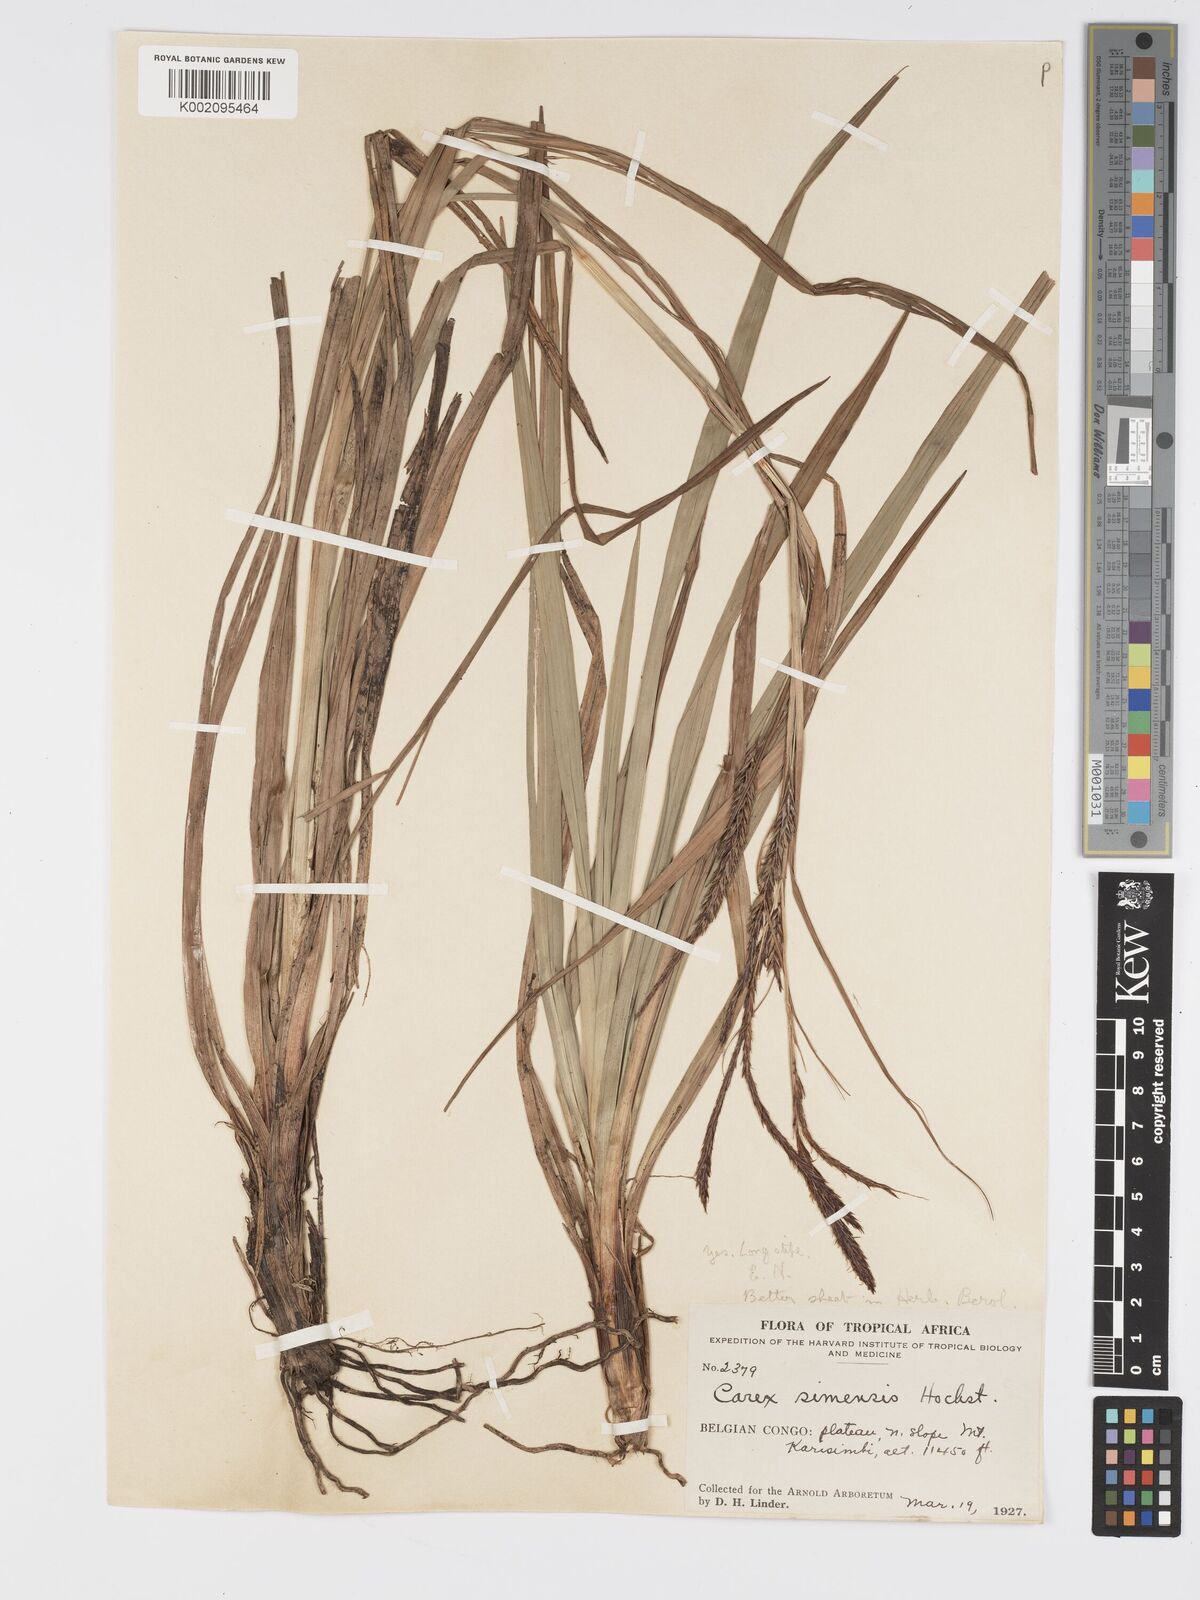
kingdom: Plantae
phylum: Tracheophyta
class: Liliopsida
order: Poales
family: Cyperaceae
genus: Carex
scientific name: Carex simensis
